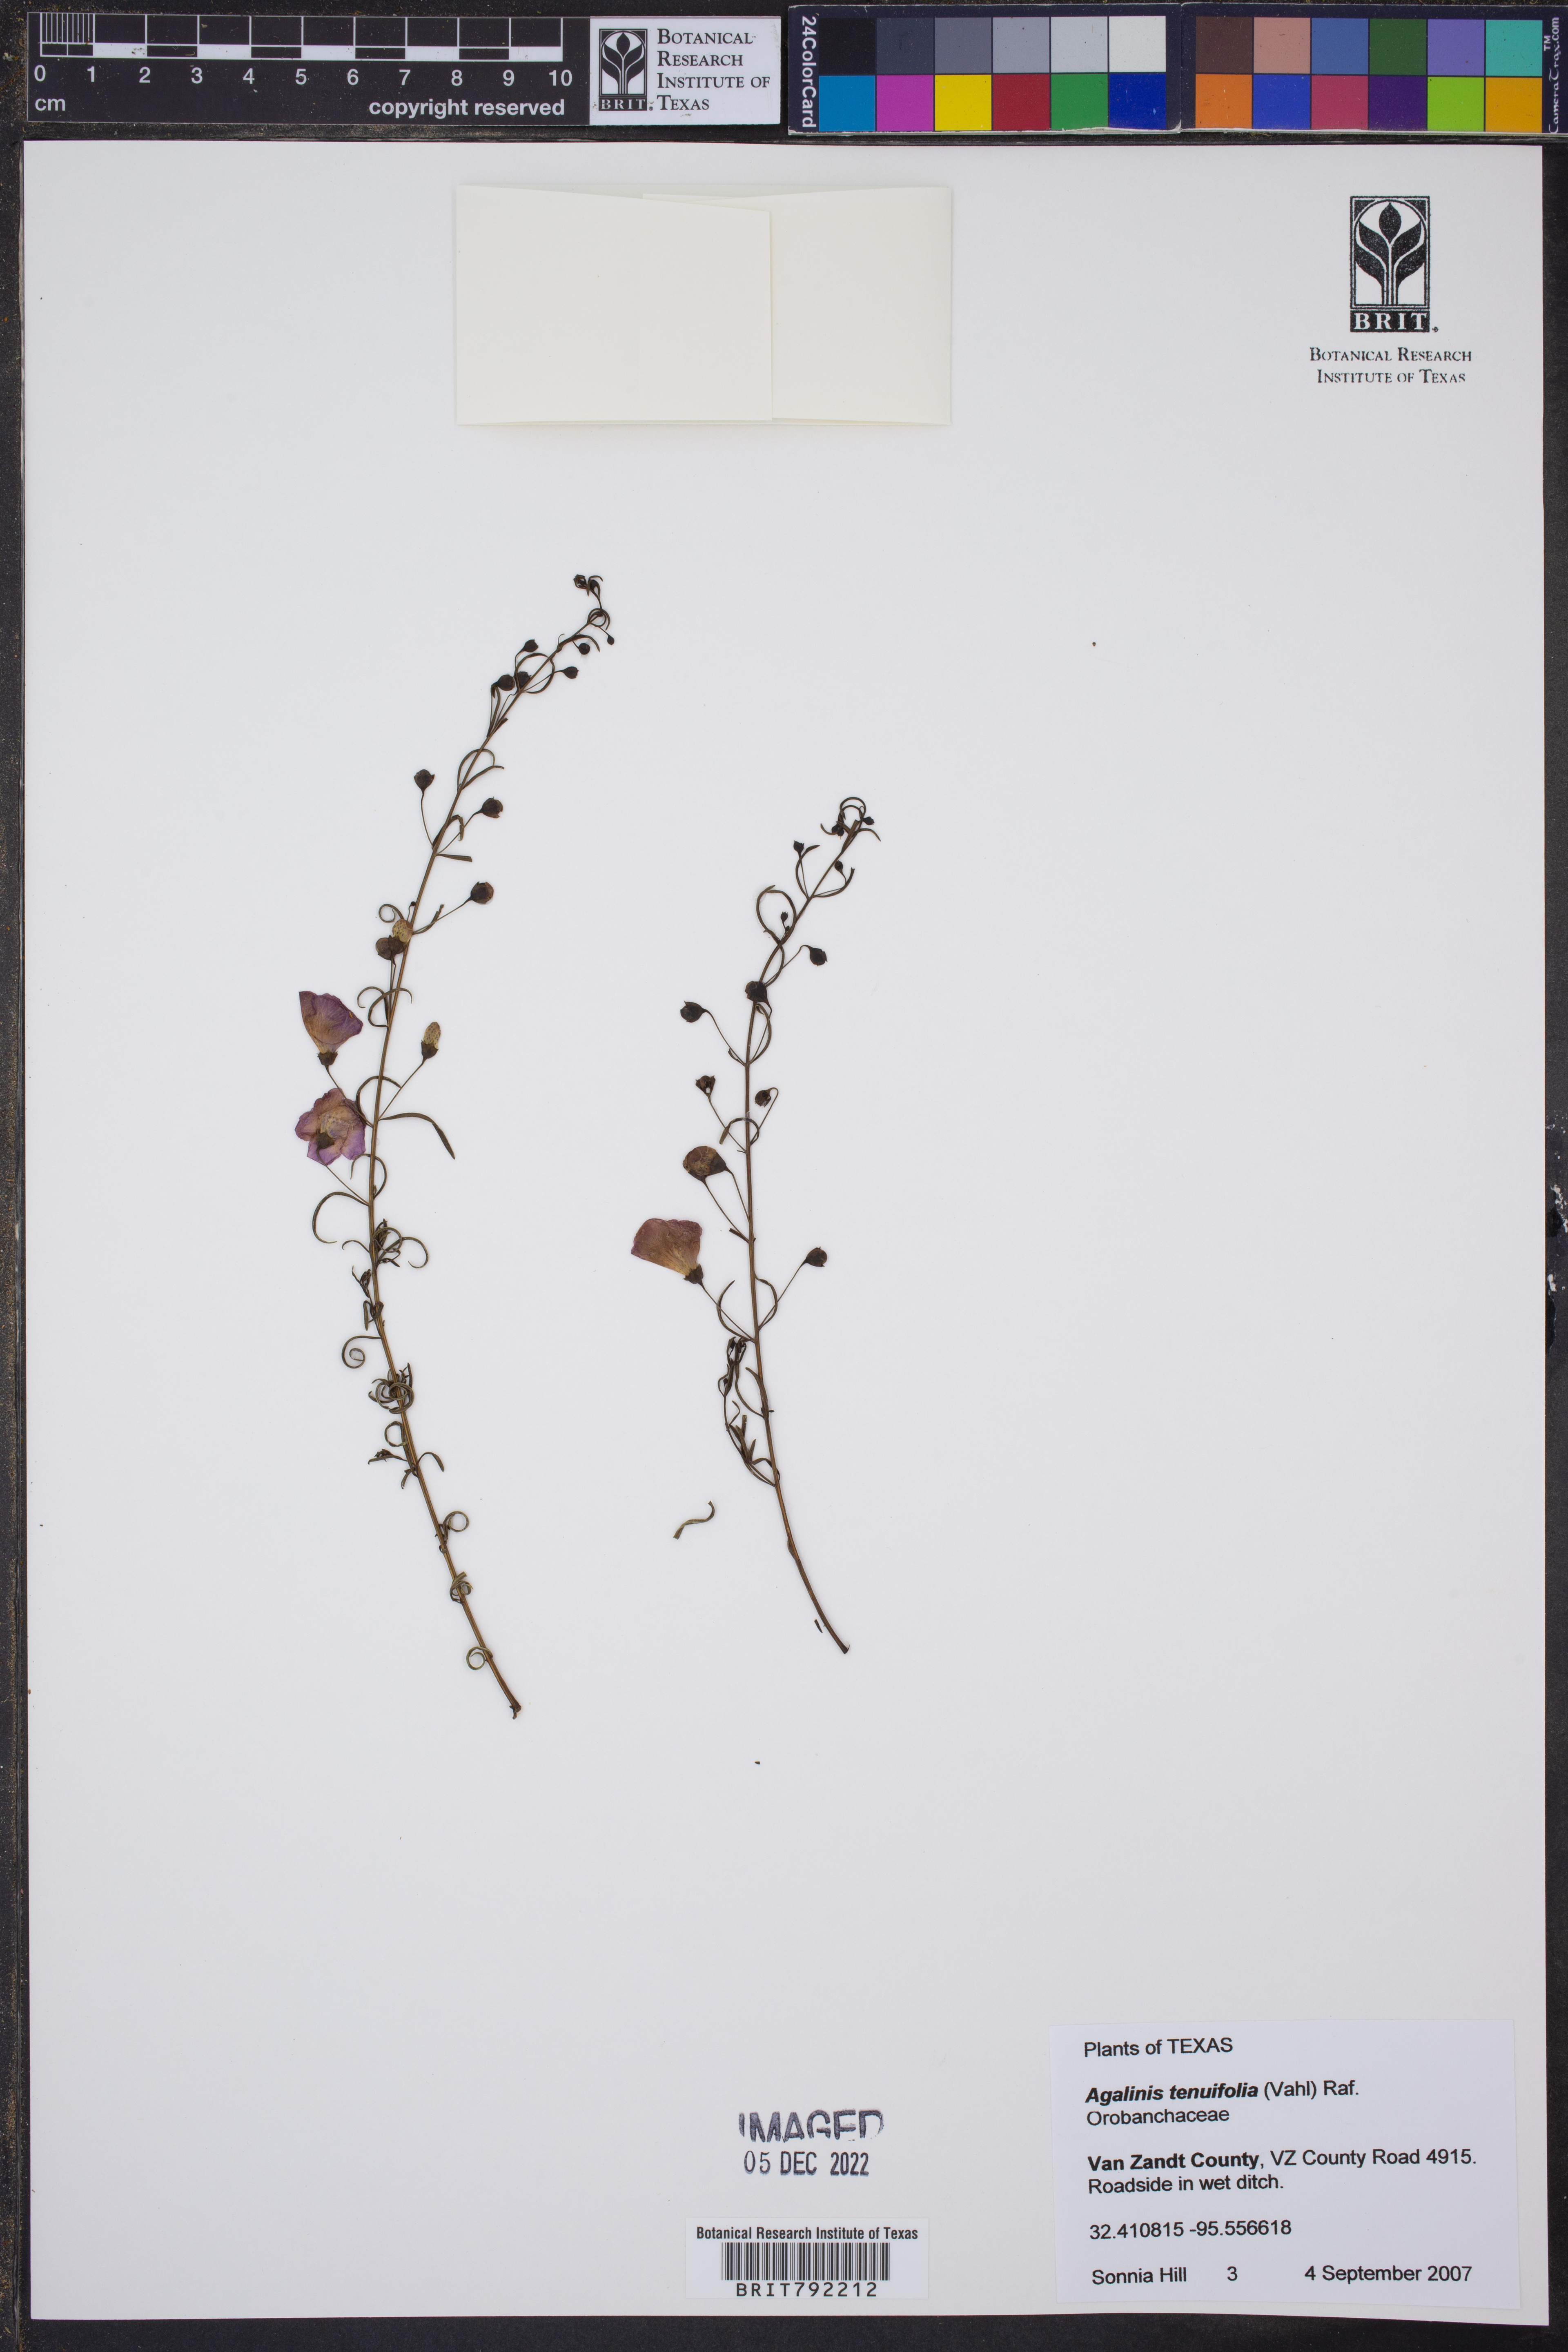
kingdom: Plantae
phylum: Tracheophyta
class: Magnoliopsida
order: Lamiales
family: Orobanchaceae
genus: Agalinis
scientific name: Agalinis tenuifolia
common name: Slender agalinis
